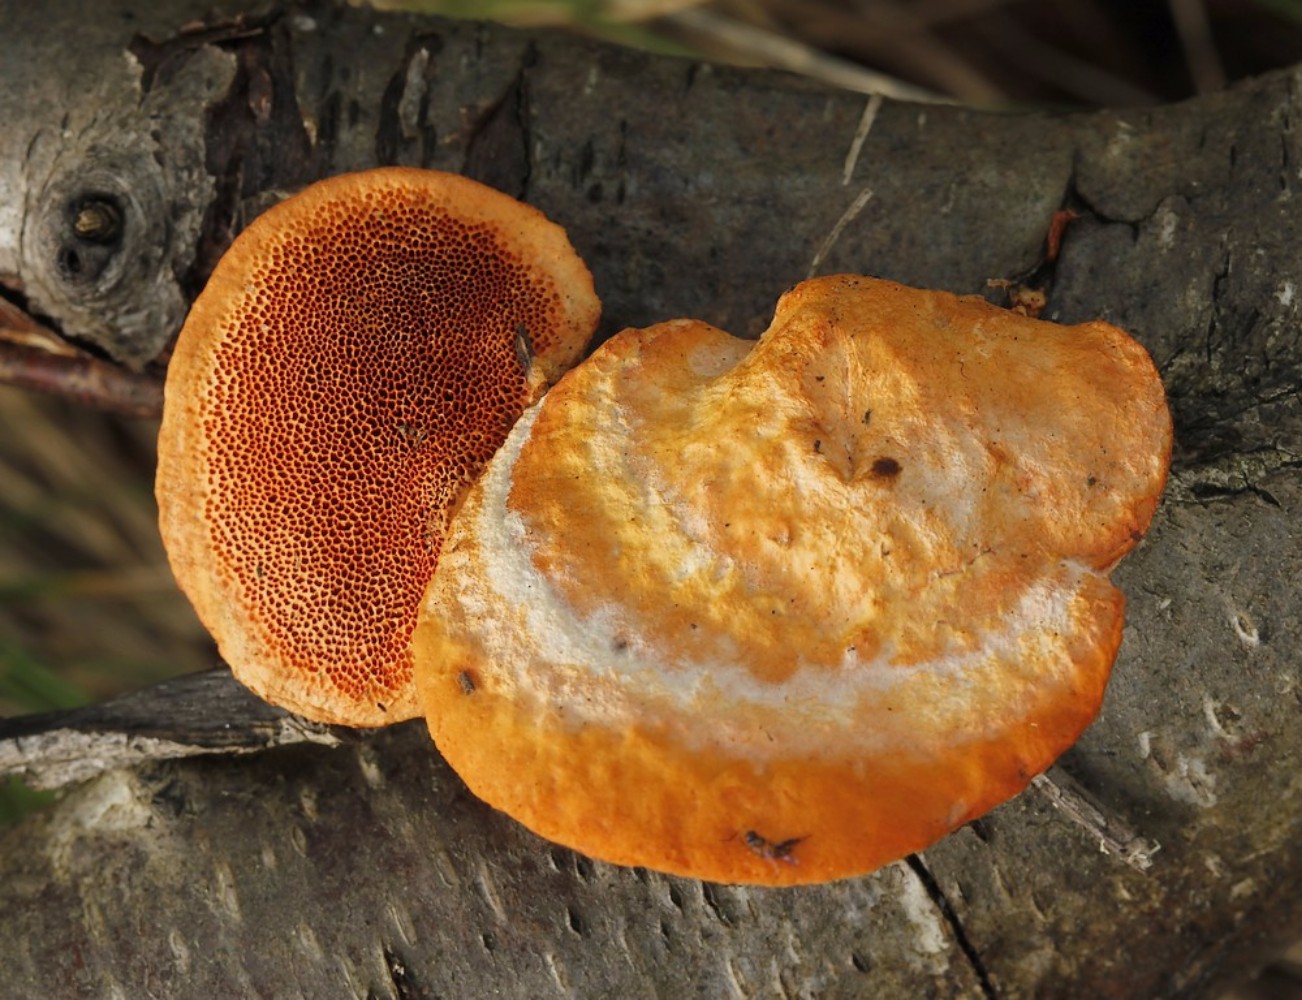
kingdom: Fungi
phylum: Basidiomycota
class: Agaricomycetes
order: Polyporales
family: Polyporaceae
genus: Trametes
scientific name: Trametes cinnabarina
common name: cinnoberporesvamp
